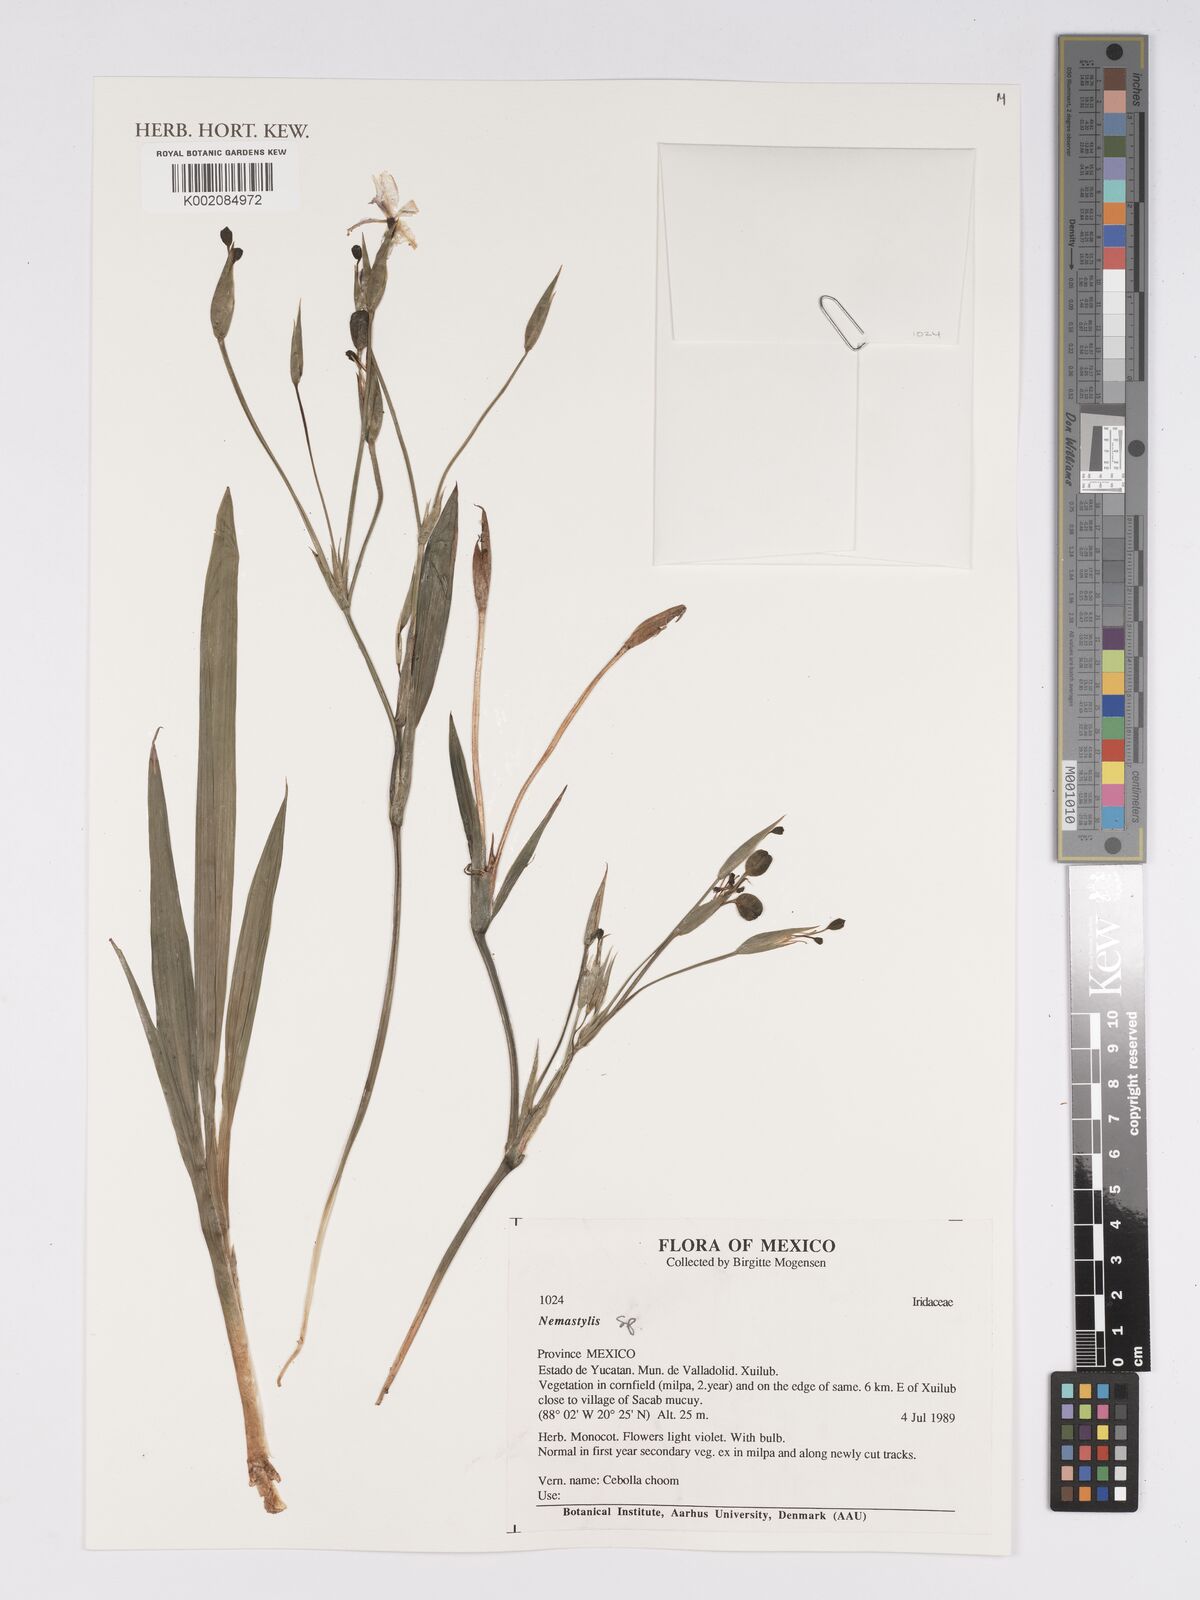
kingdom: Plantae
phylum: Tracheophyta
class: Liliopsida
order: Asparagales
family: Iridaceae
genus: Nemastylis
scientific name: Nemastylis
